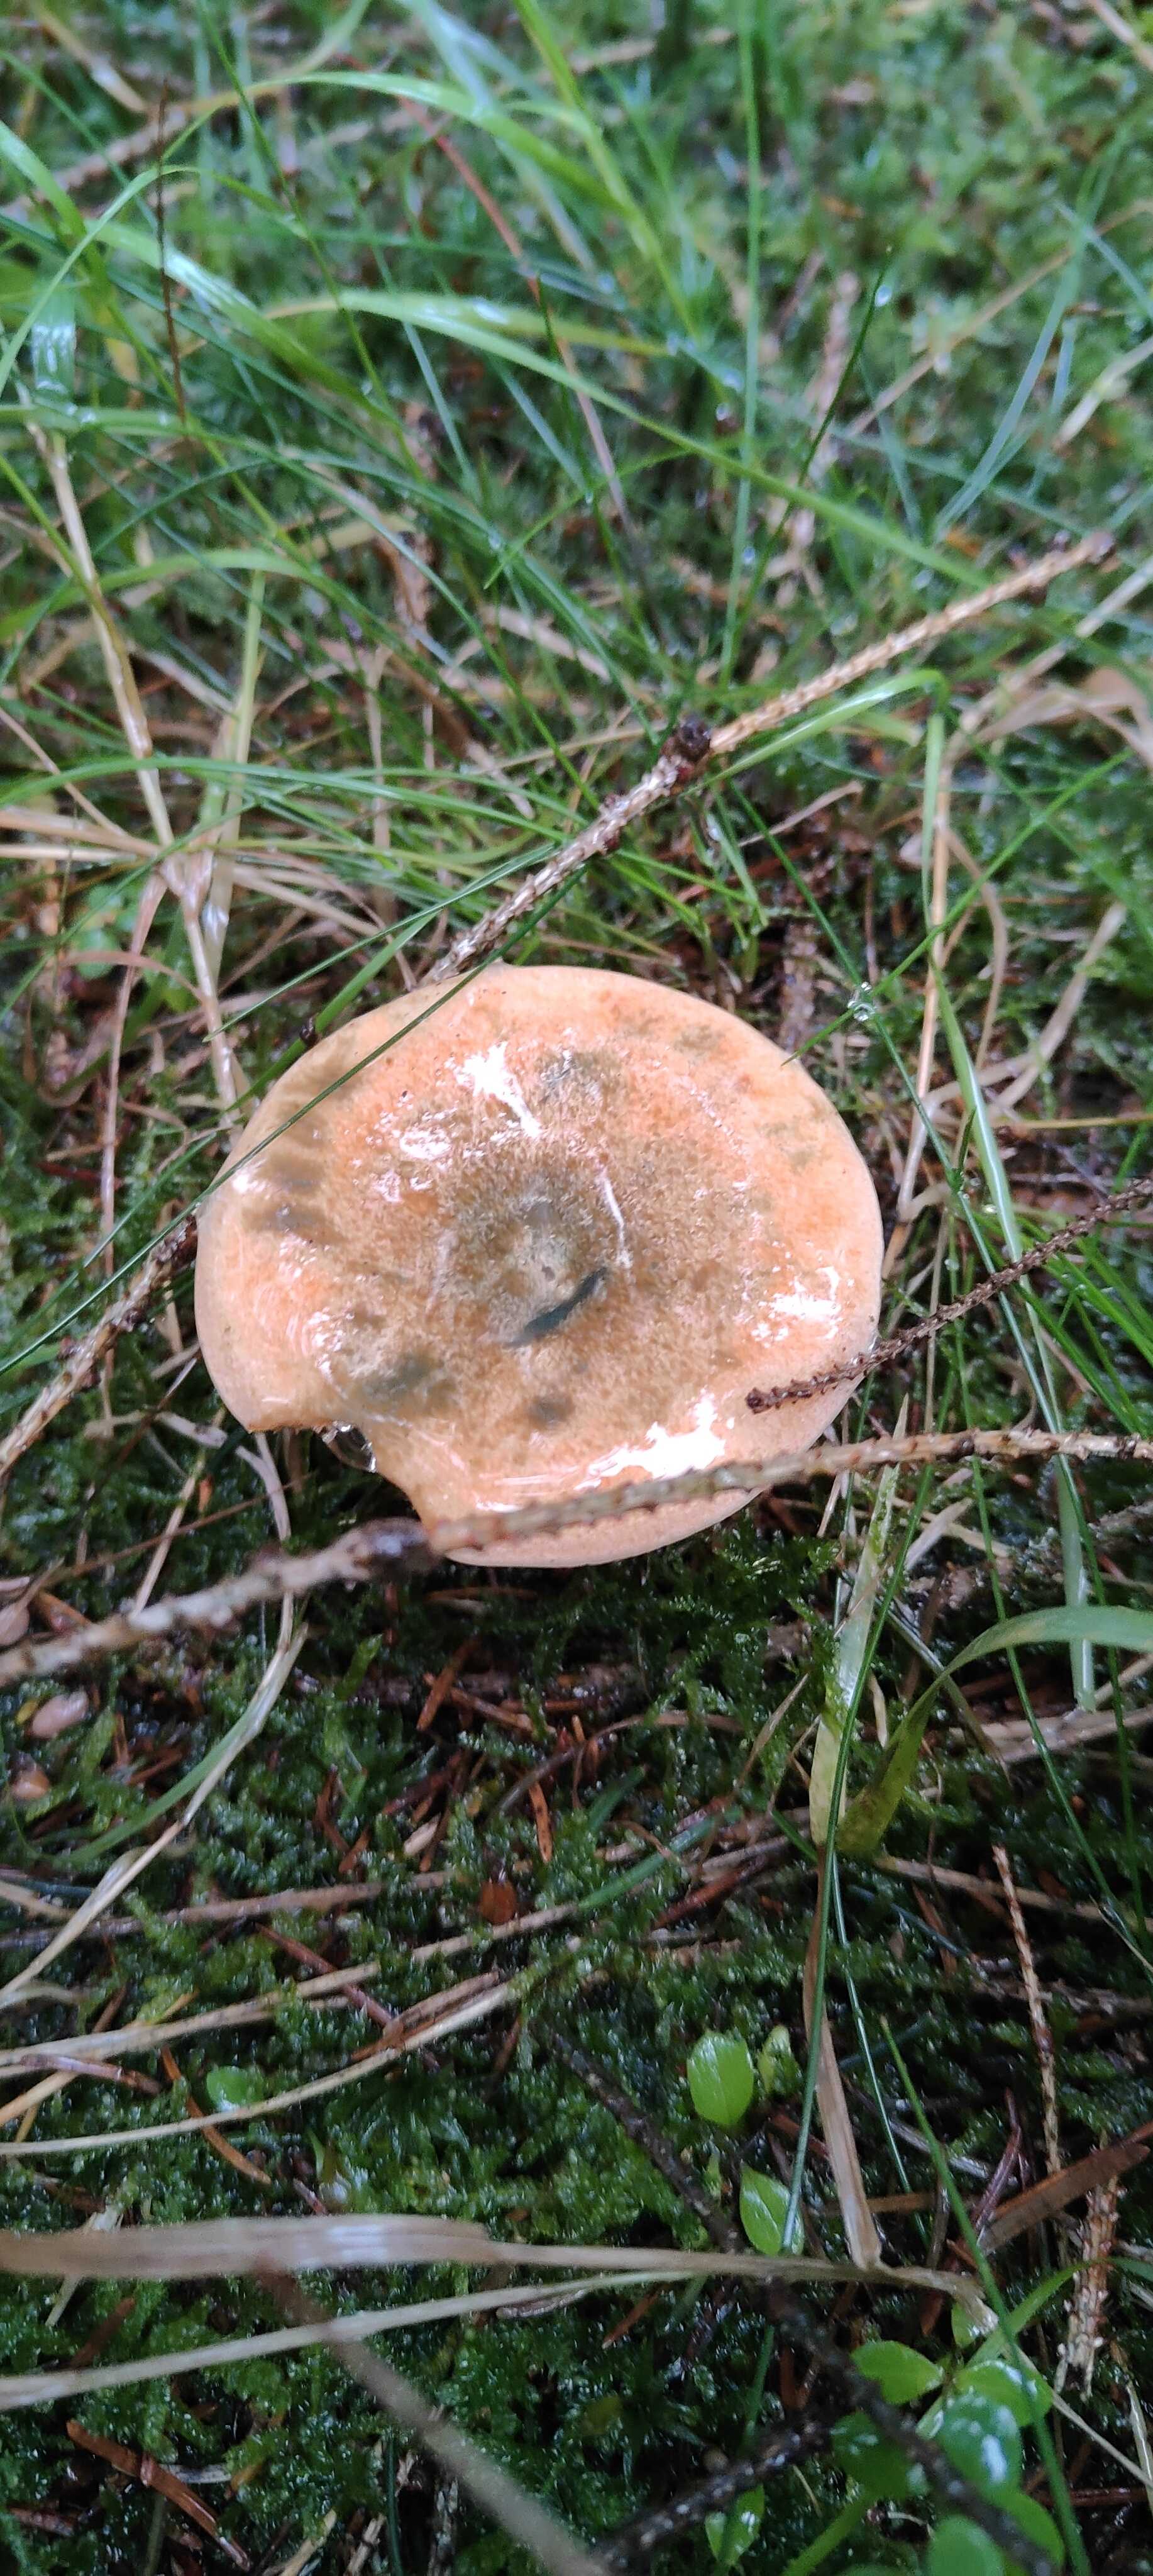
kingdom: Fungi
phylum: Basidiomycota
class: Agaricomycetes
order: Russulales
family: Russulaceae
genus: Lactarius
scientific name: Lactarius deterrimus
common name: gran-mælkehat
